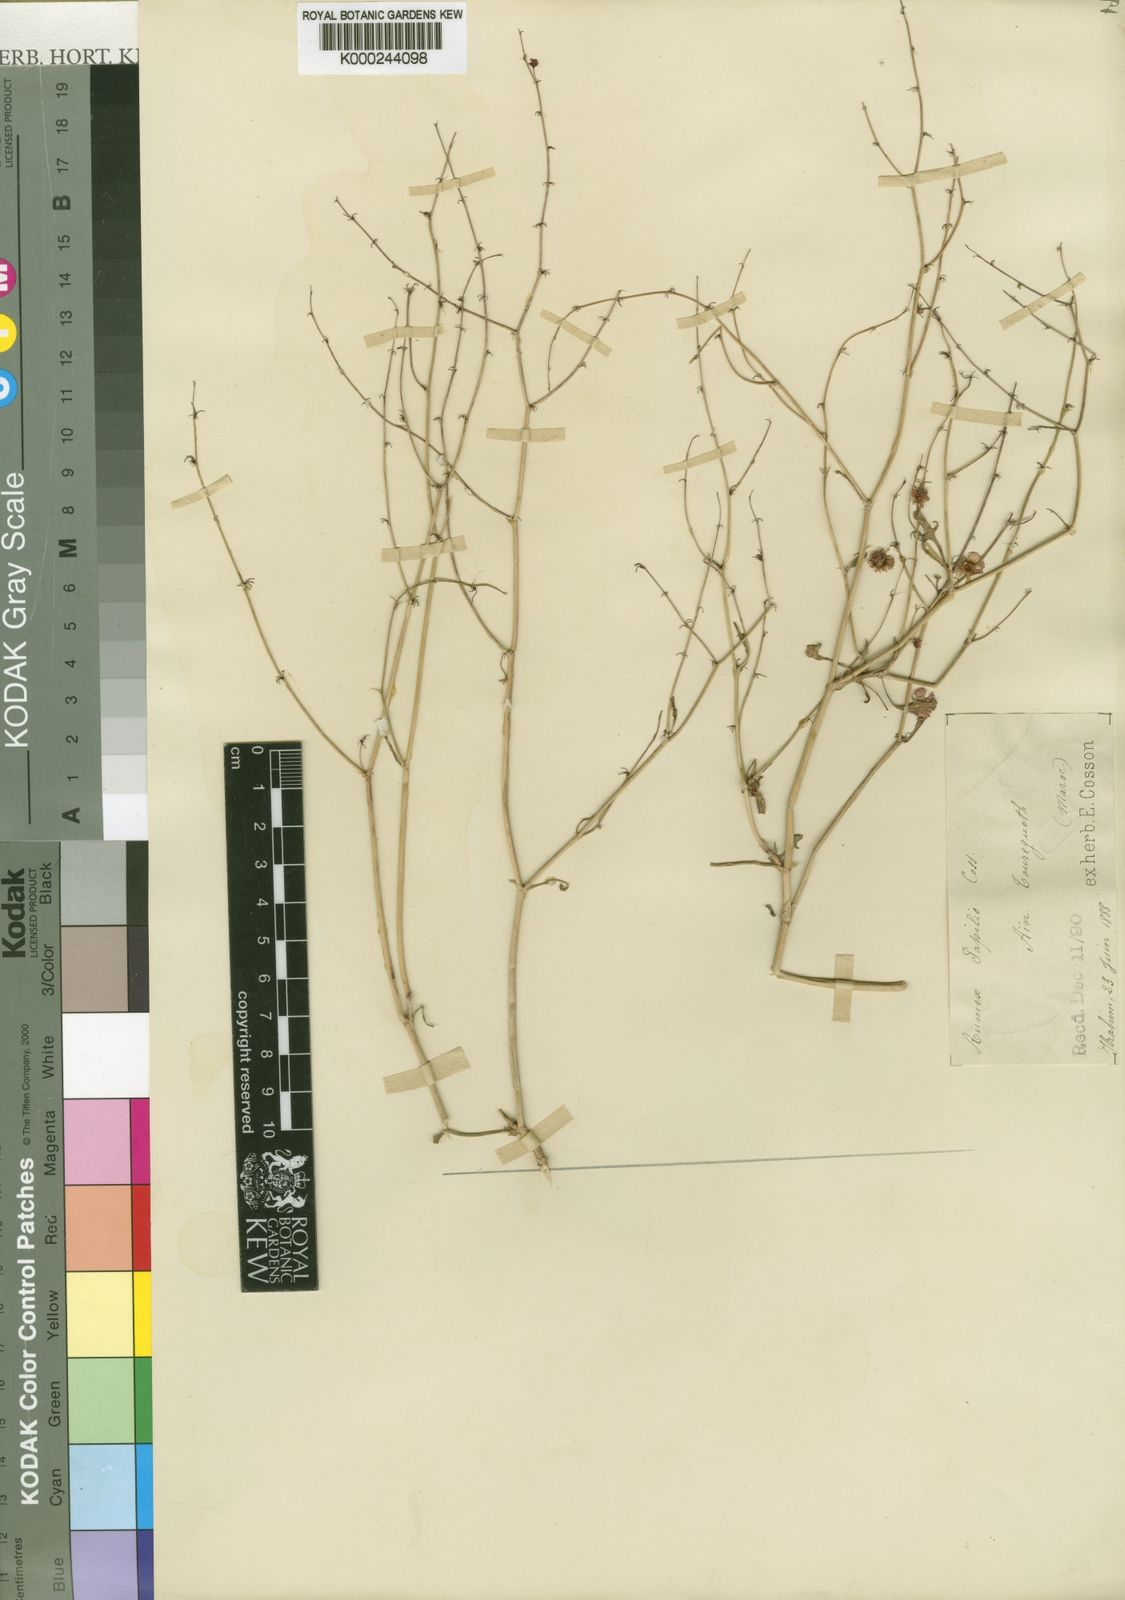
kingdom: Plantae
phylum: Tracheophyta
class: Magnoliopsida
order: Caryophyllales
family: Polygonaceae
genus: Rumex
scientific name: Rumex papilio
